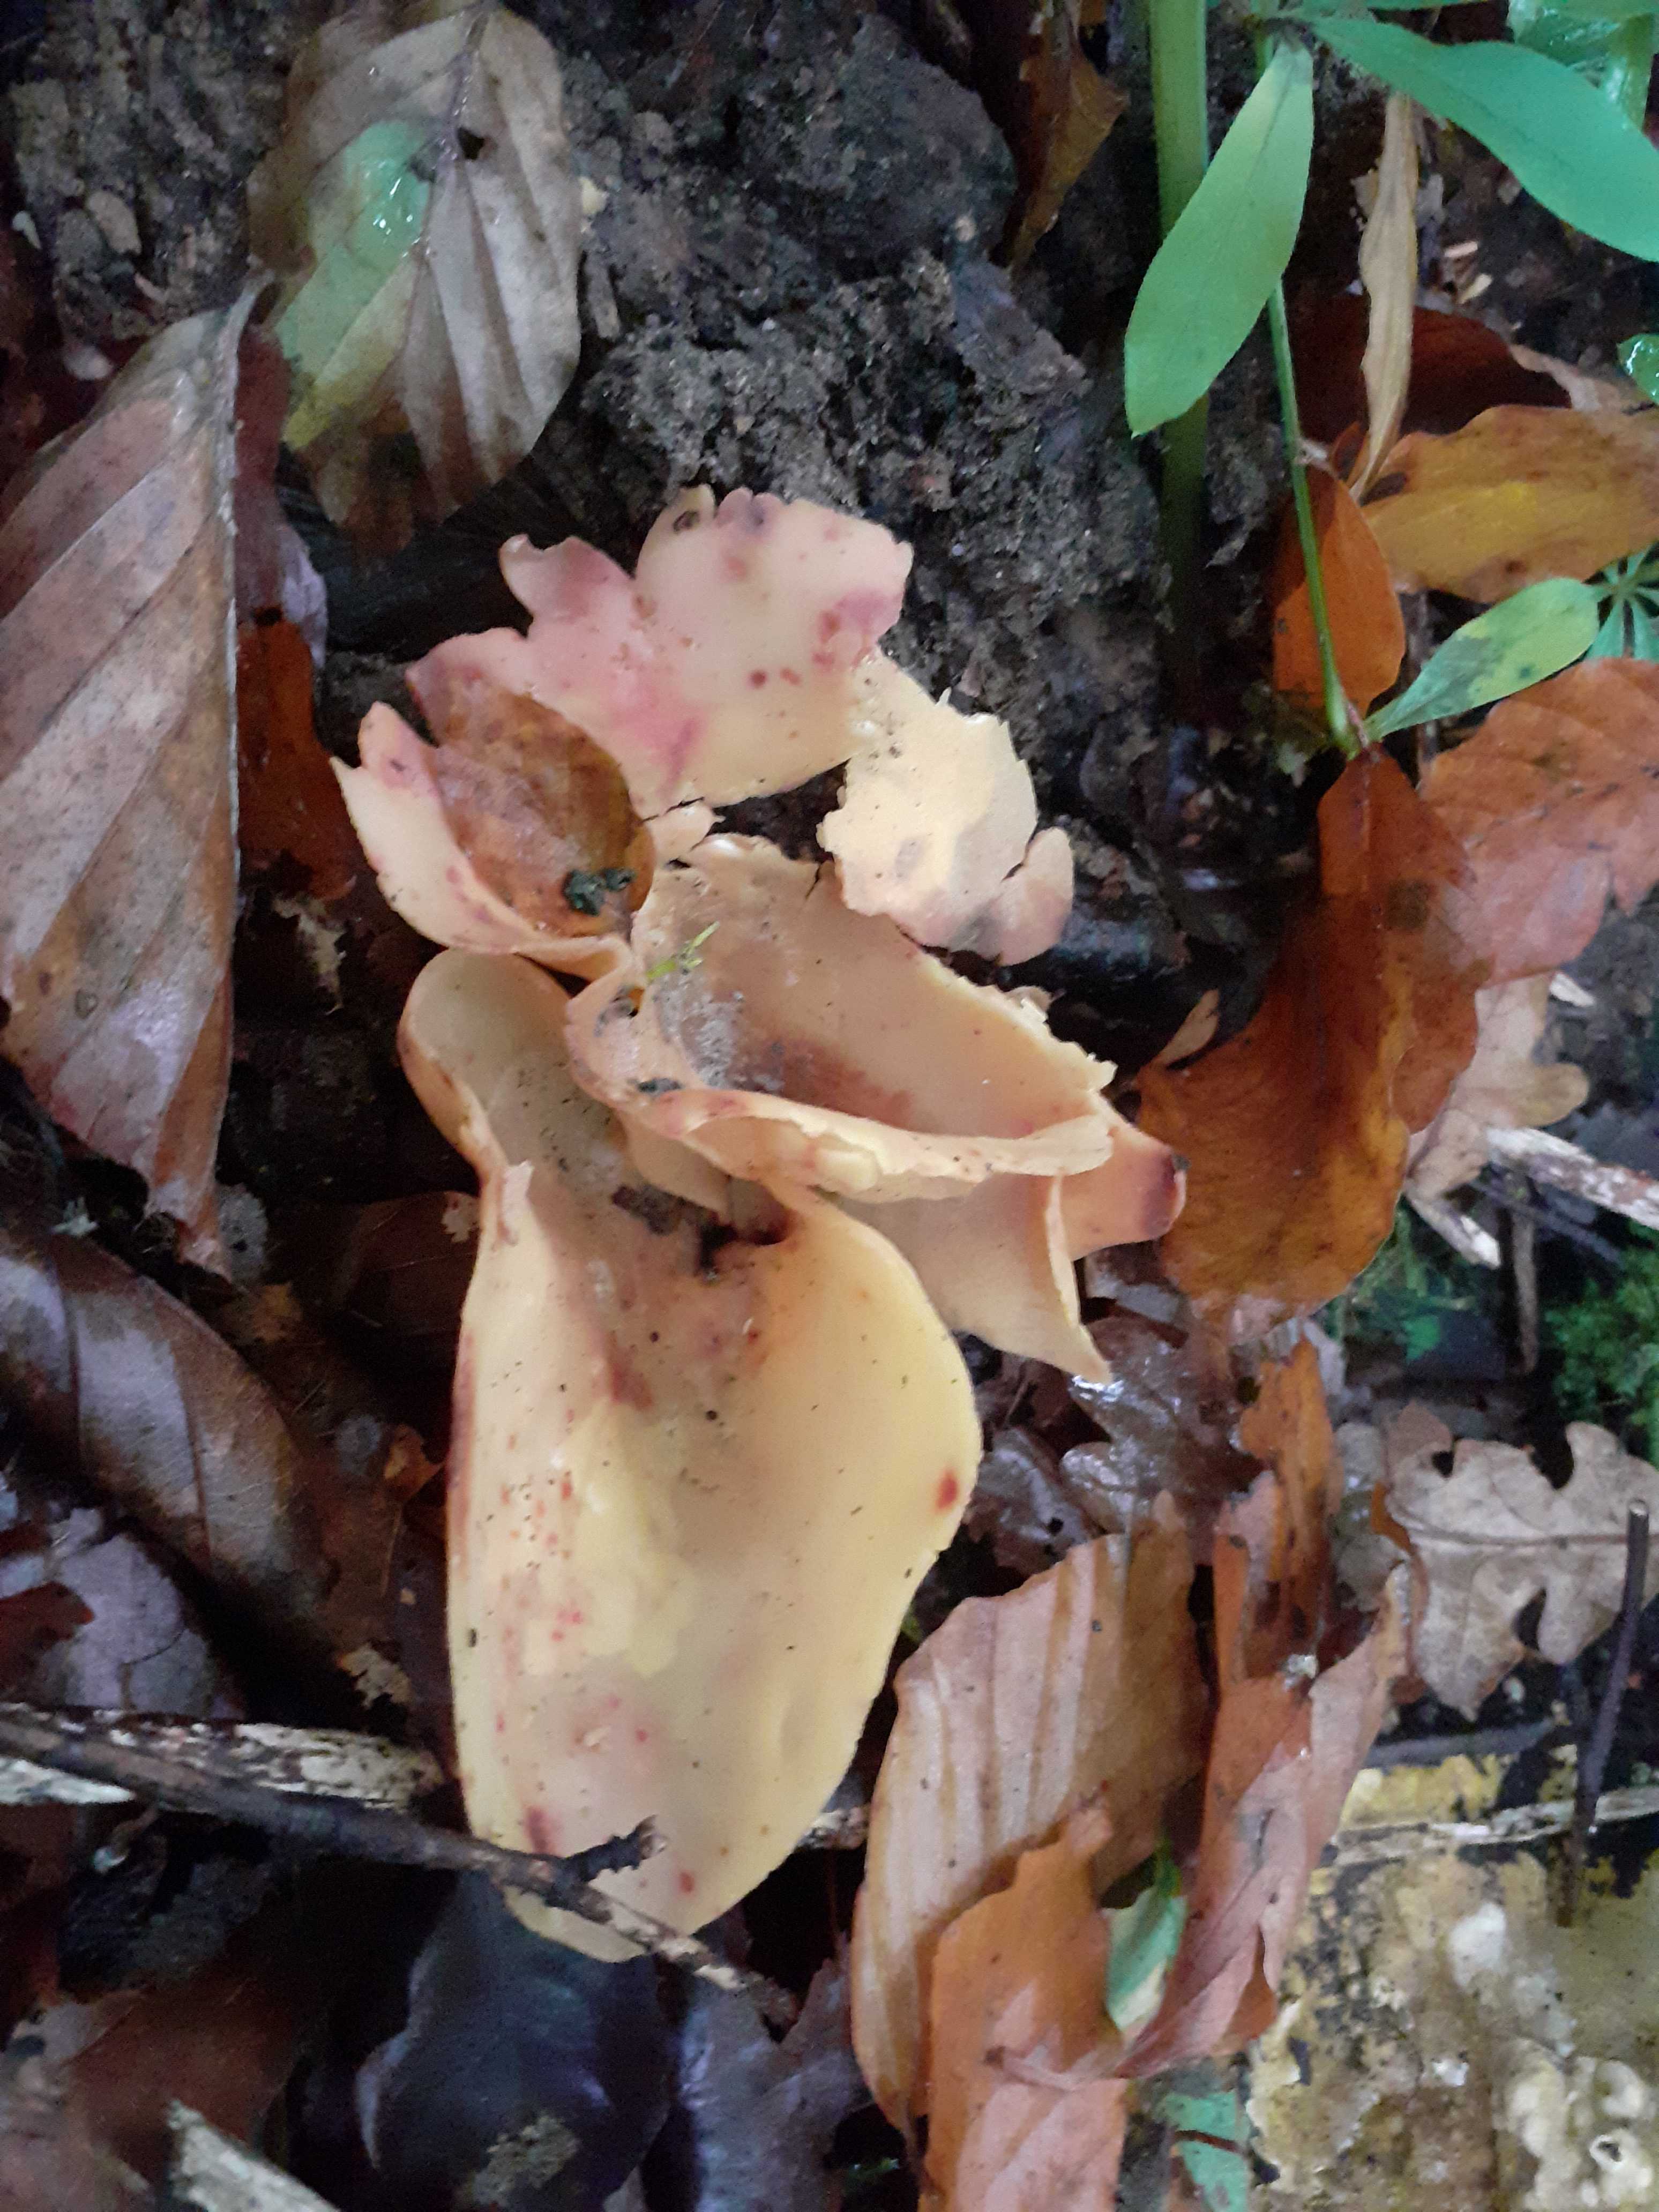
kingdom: Fungi
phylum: Ascomycota
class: Pezizomycetes
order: Pezizales
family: Otideaceae
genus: Otidea
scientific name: Otidea onotica
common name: æsel-ørebæger
